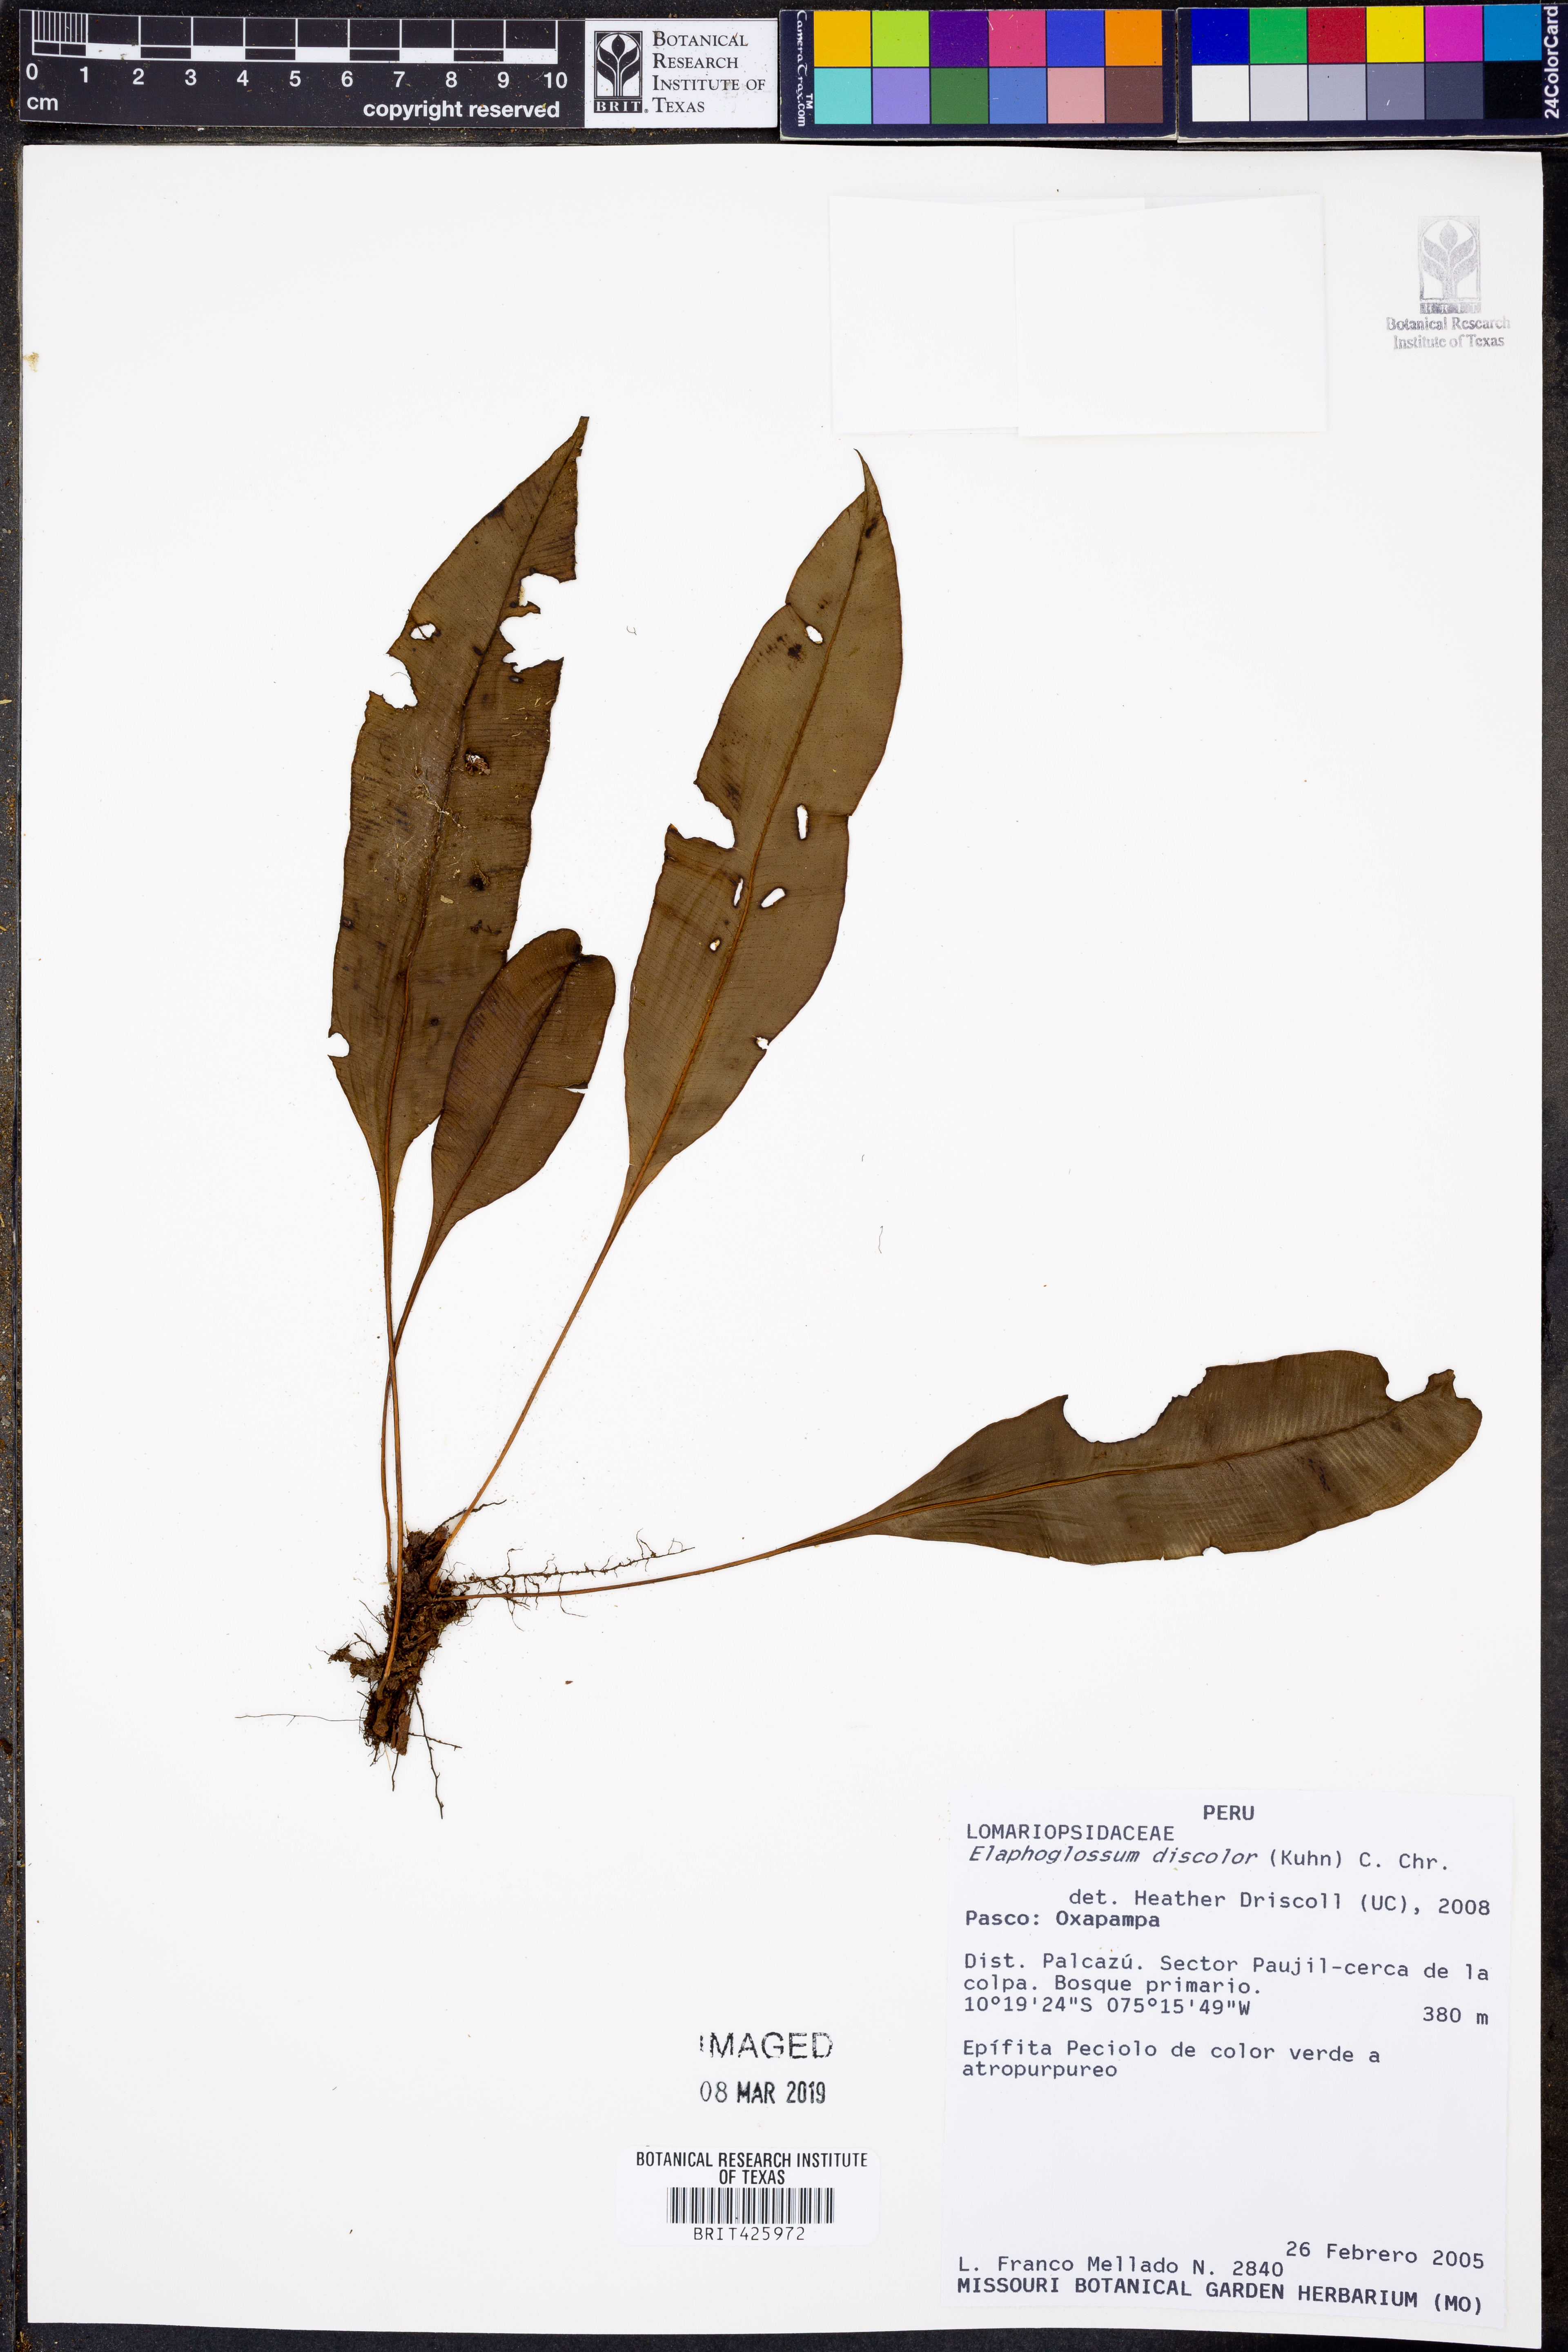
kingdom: Plantae
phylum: Tracheophyta
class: Polypodiopsida
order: Polypodiales
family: Dryopteridaceae
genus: Elaphoglossum
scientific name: Elaphoglossum discolor
